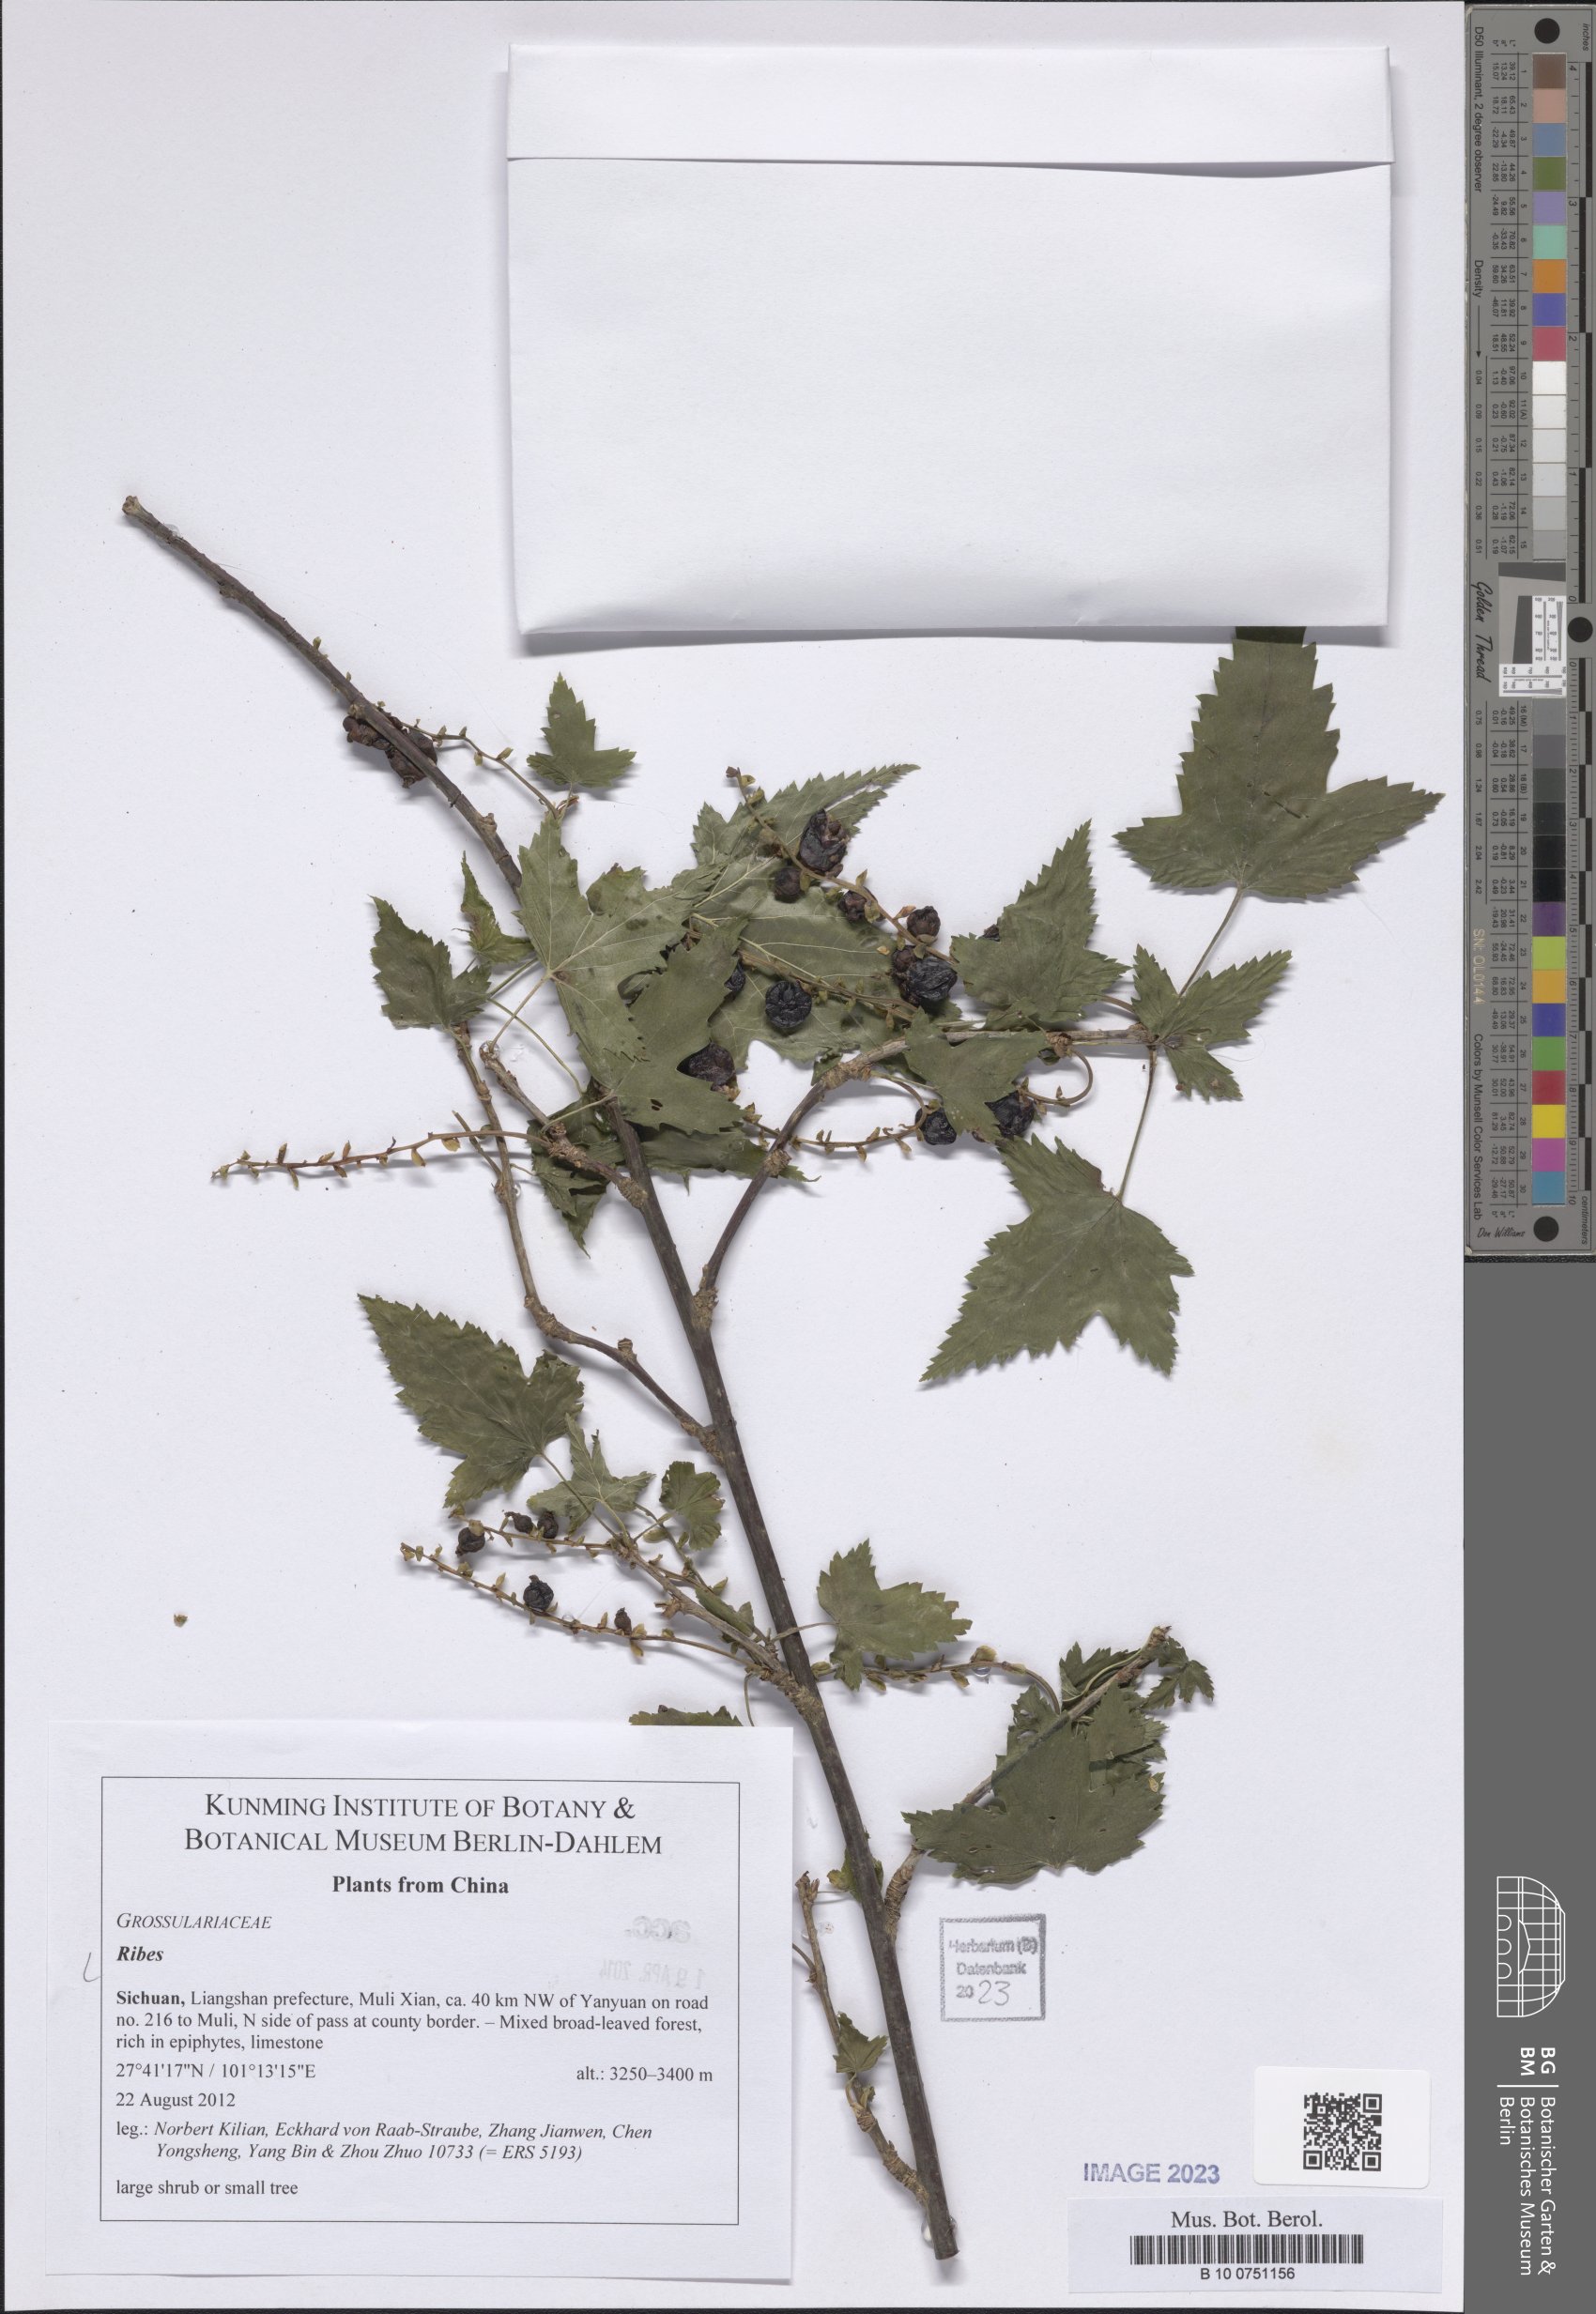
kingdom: Plantae
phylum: Tracheophyta
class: Magnoliopsida
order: Saxifragales
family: Grossulariaceae
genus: Ribes
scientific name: Ribes
